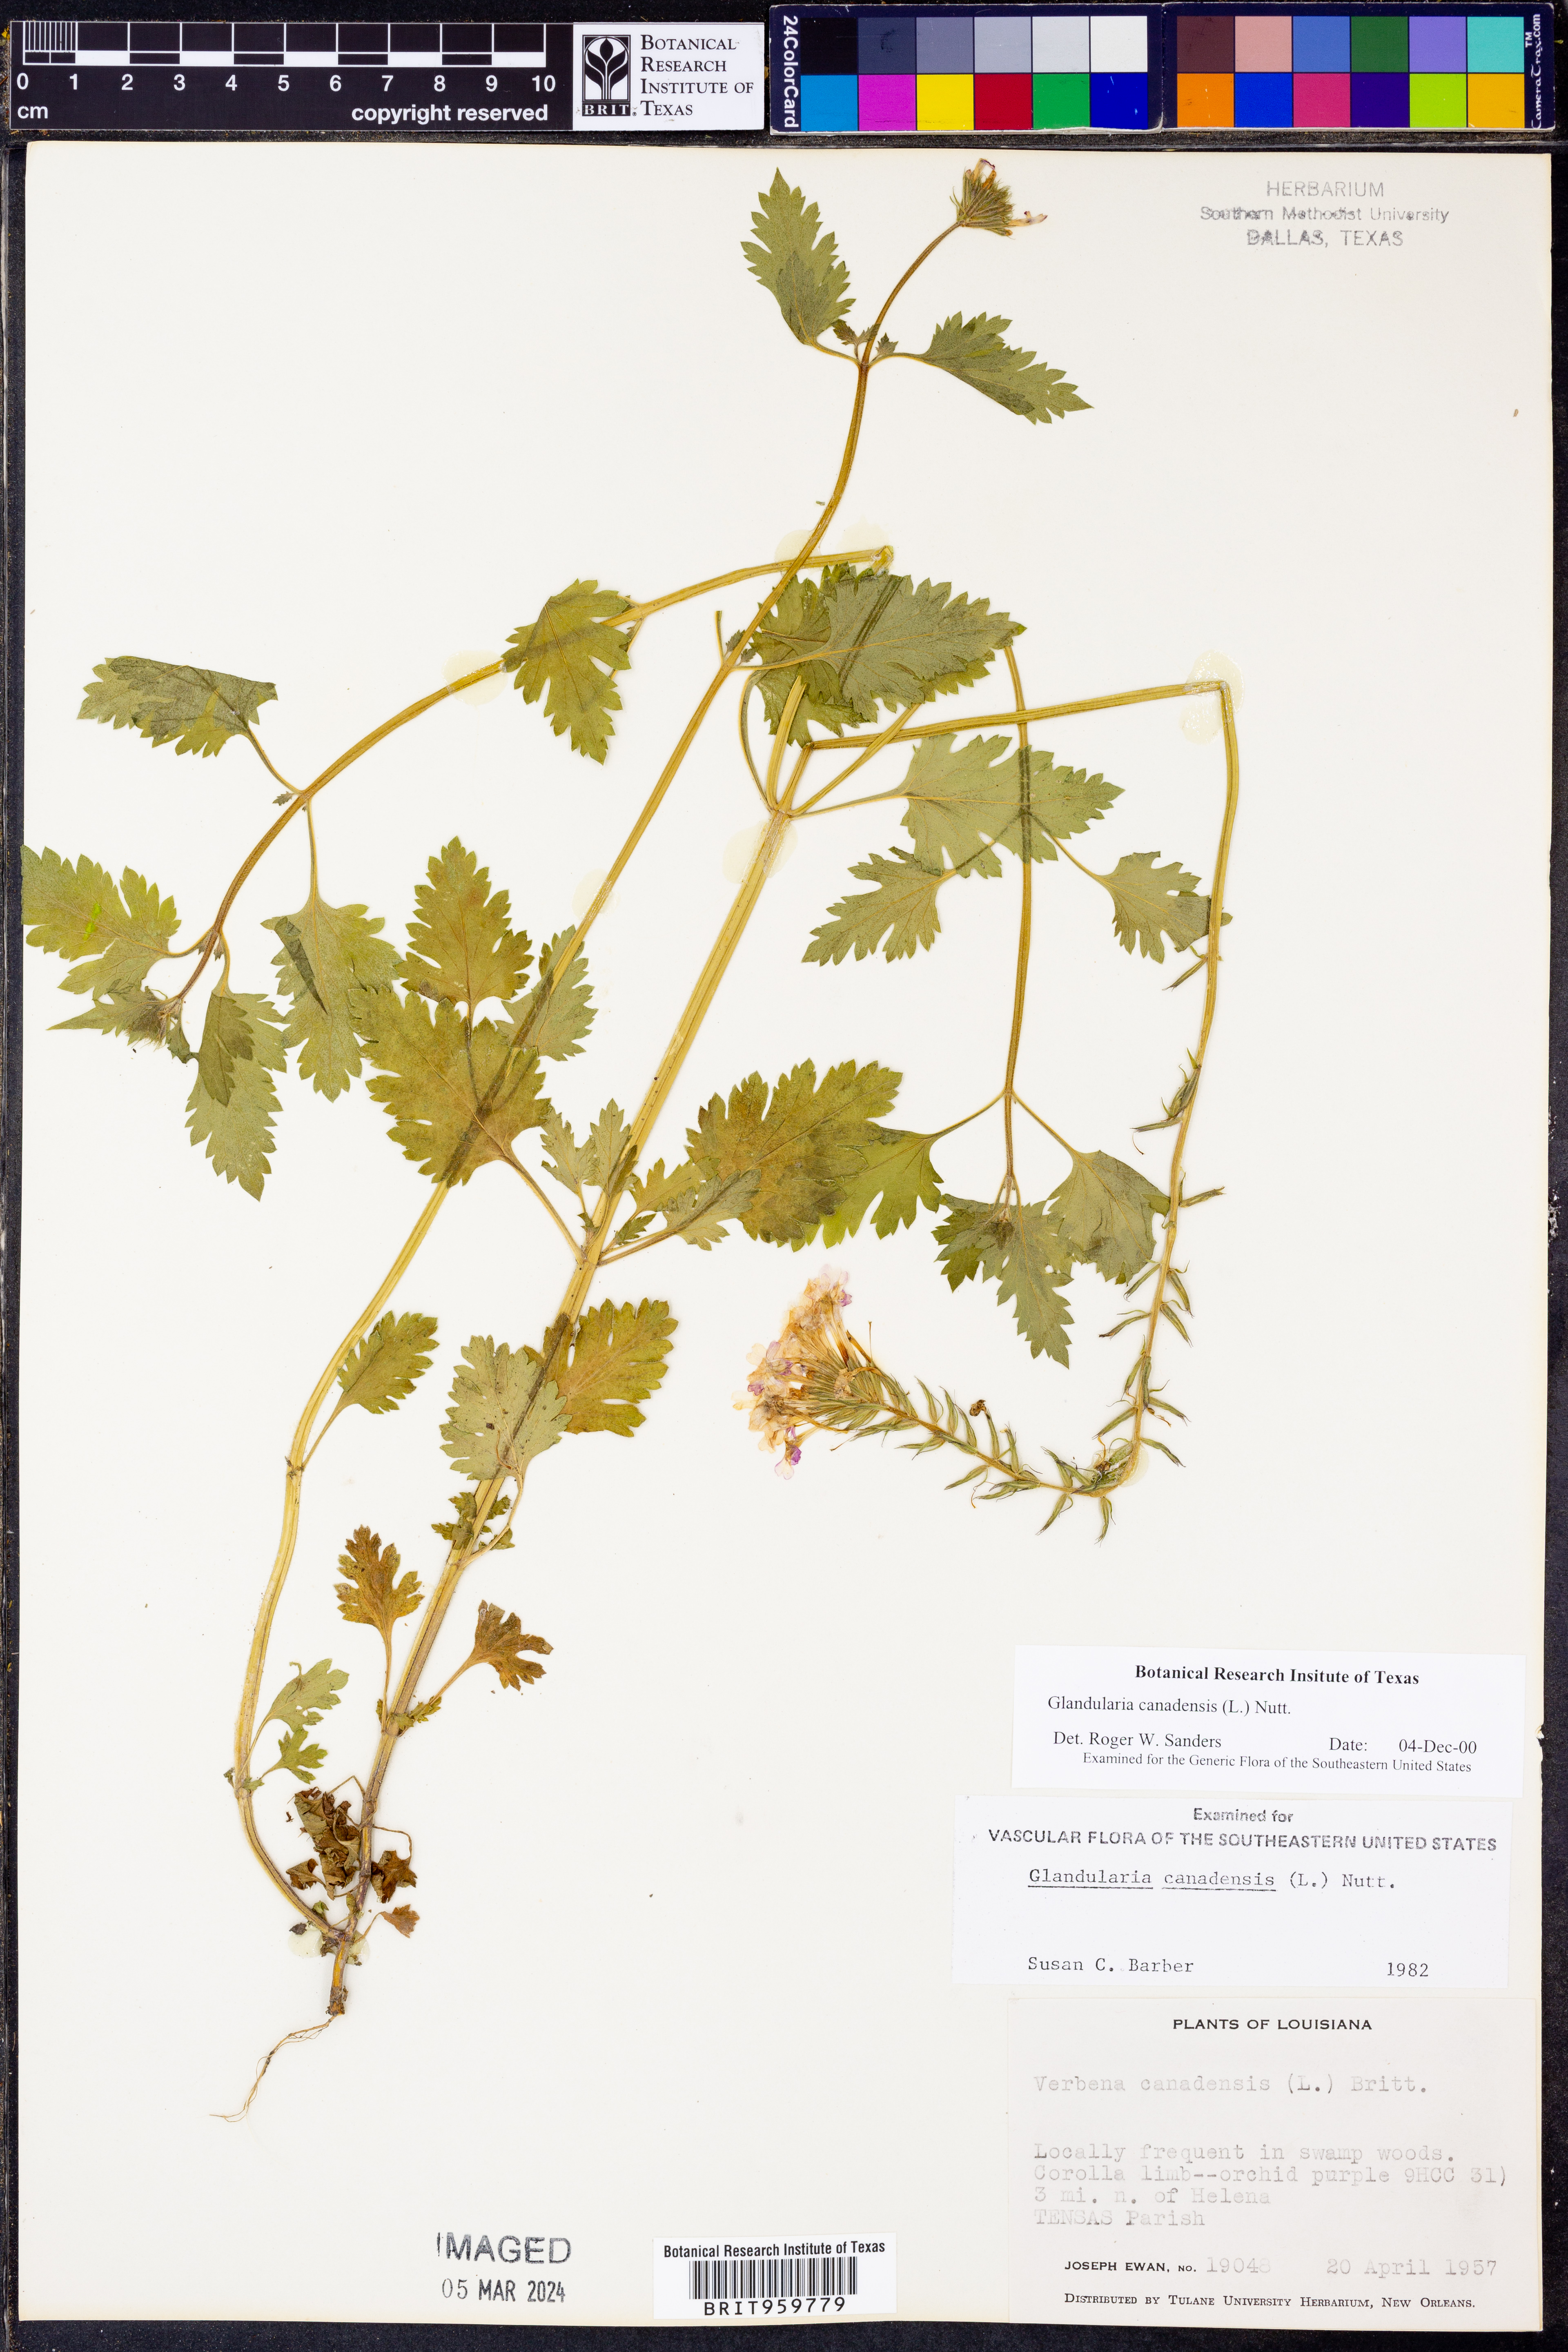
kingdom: Plantae
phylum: Tracheophyta
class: Magnoliopsida
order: Lamiales
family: Verbenaceae
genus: Verbena
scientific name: Verbena canadensis
